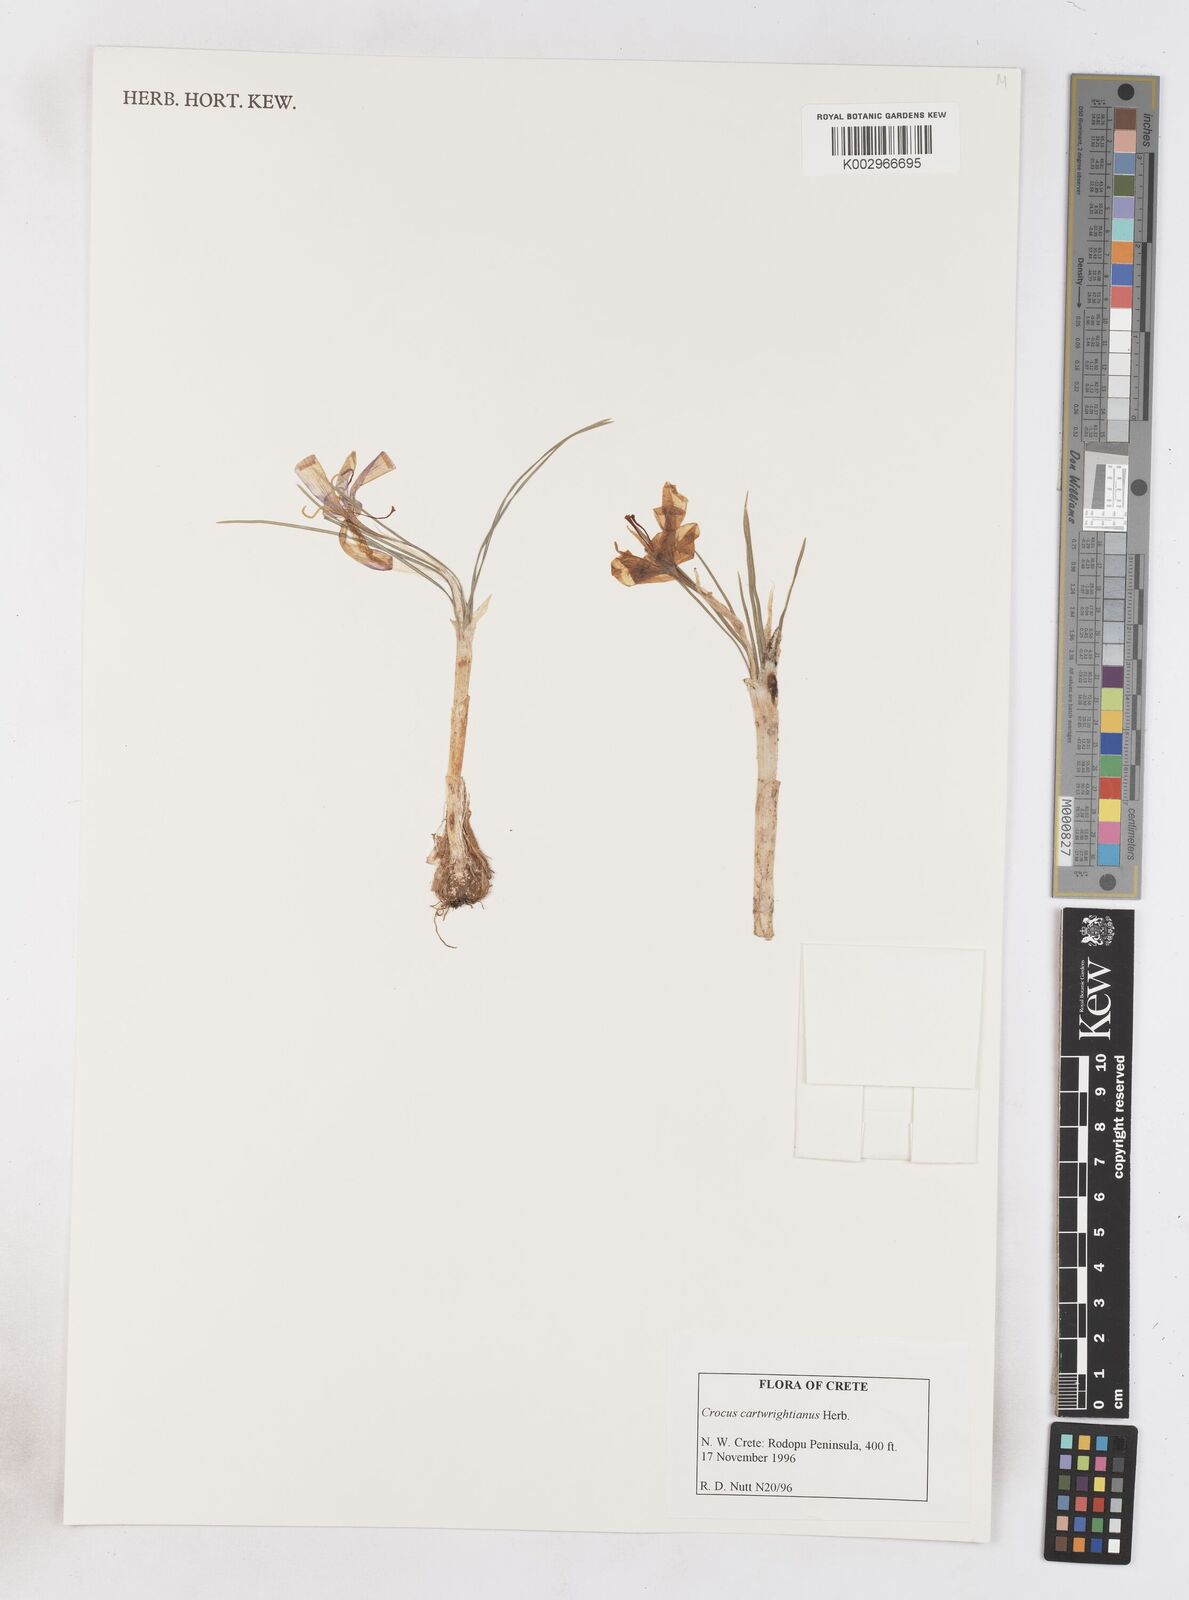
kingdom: Plantae
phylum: Tracheophyta
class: Liliopsida
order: Asparagales
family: Iridaceae
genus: Crocus
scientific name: Crocus cartwrightianus
